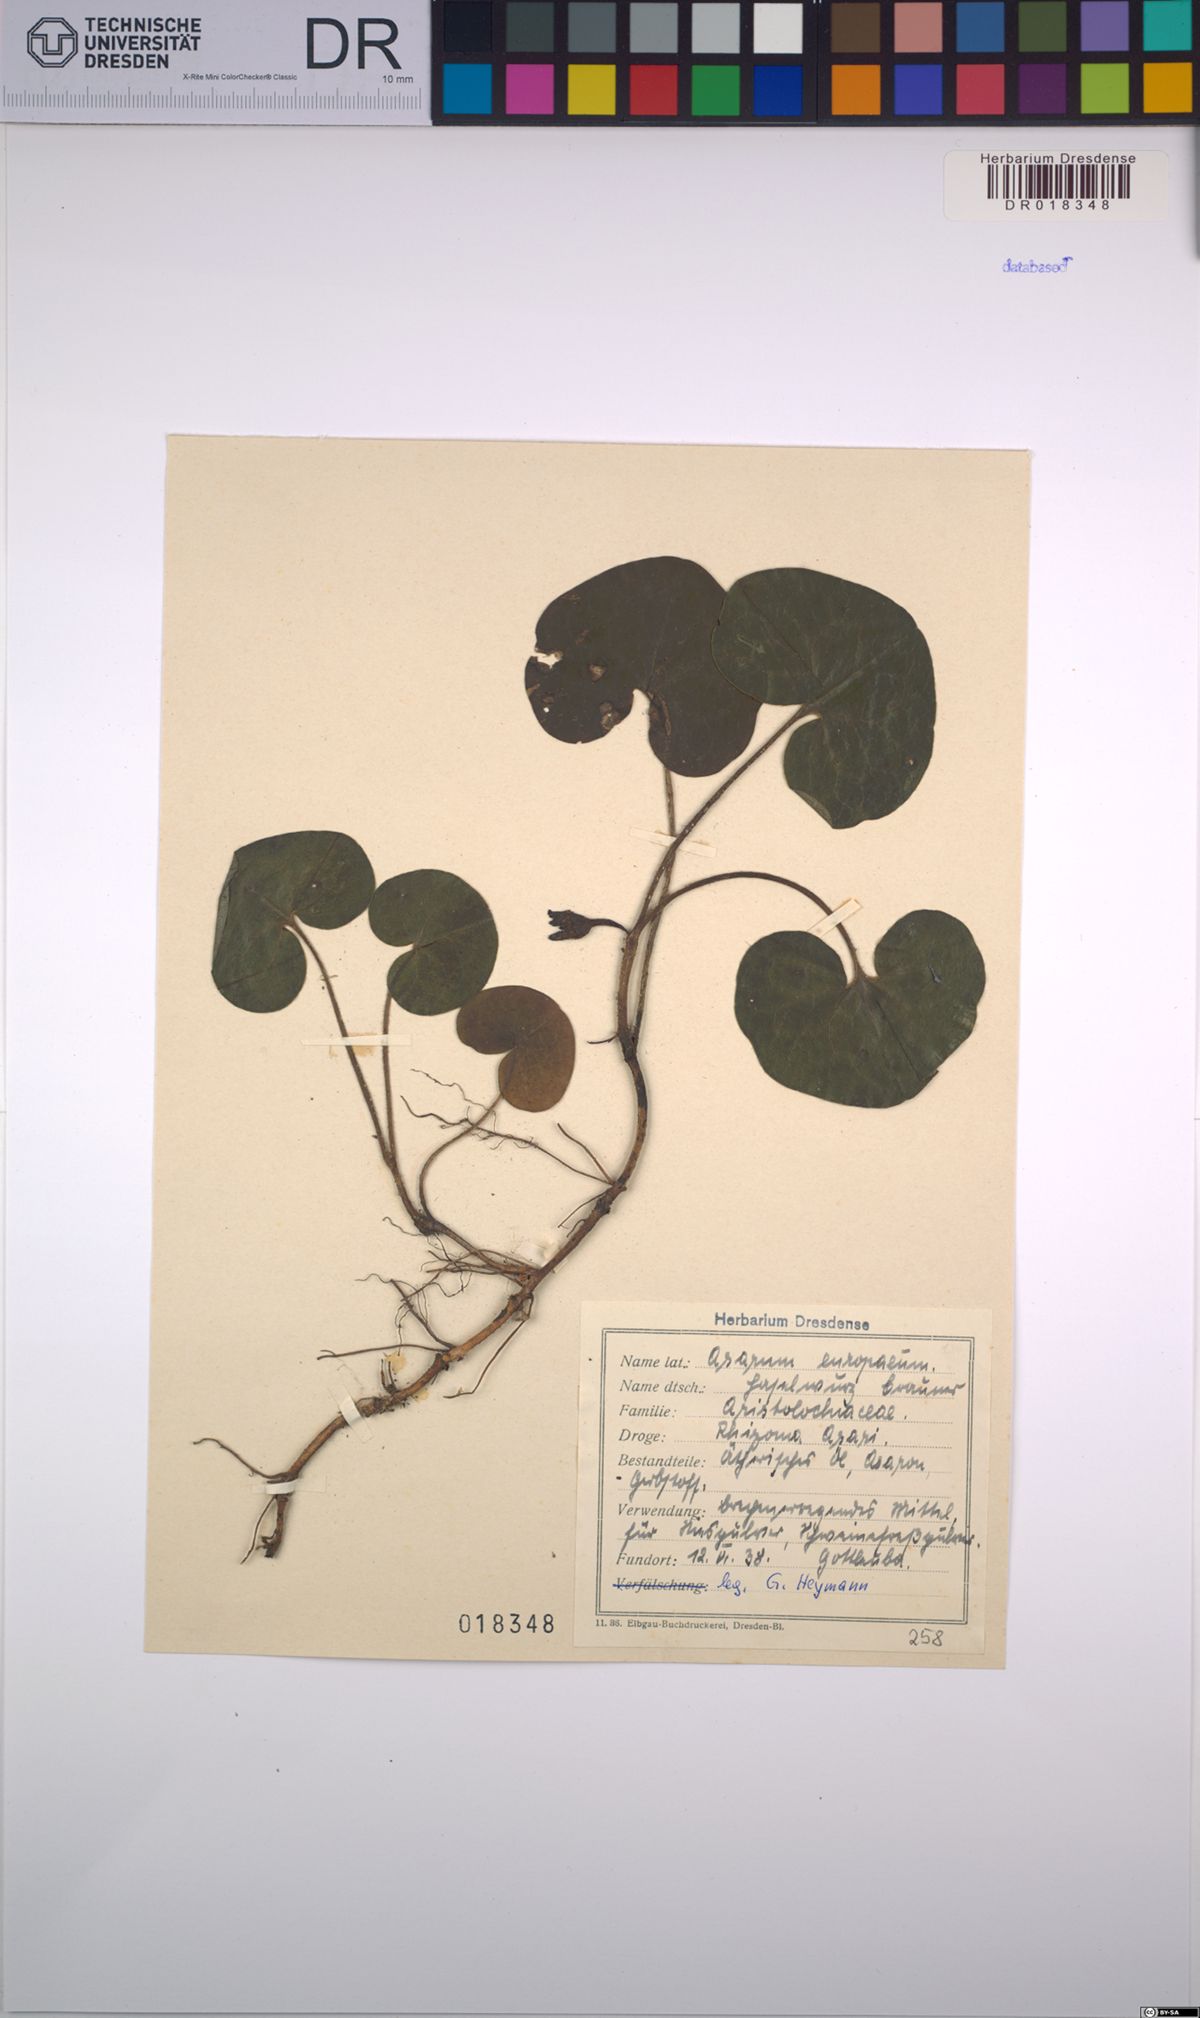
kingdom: Plantae
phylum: Tracheophyta
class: Magnoliopsida
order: Piperales
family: Aristolochiaceae
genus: Asarum
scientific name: Asarum europaeum
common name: Asarabacca
